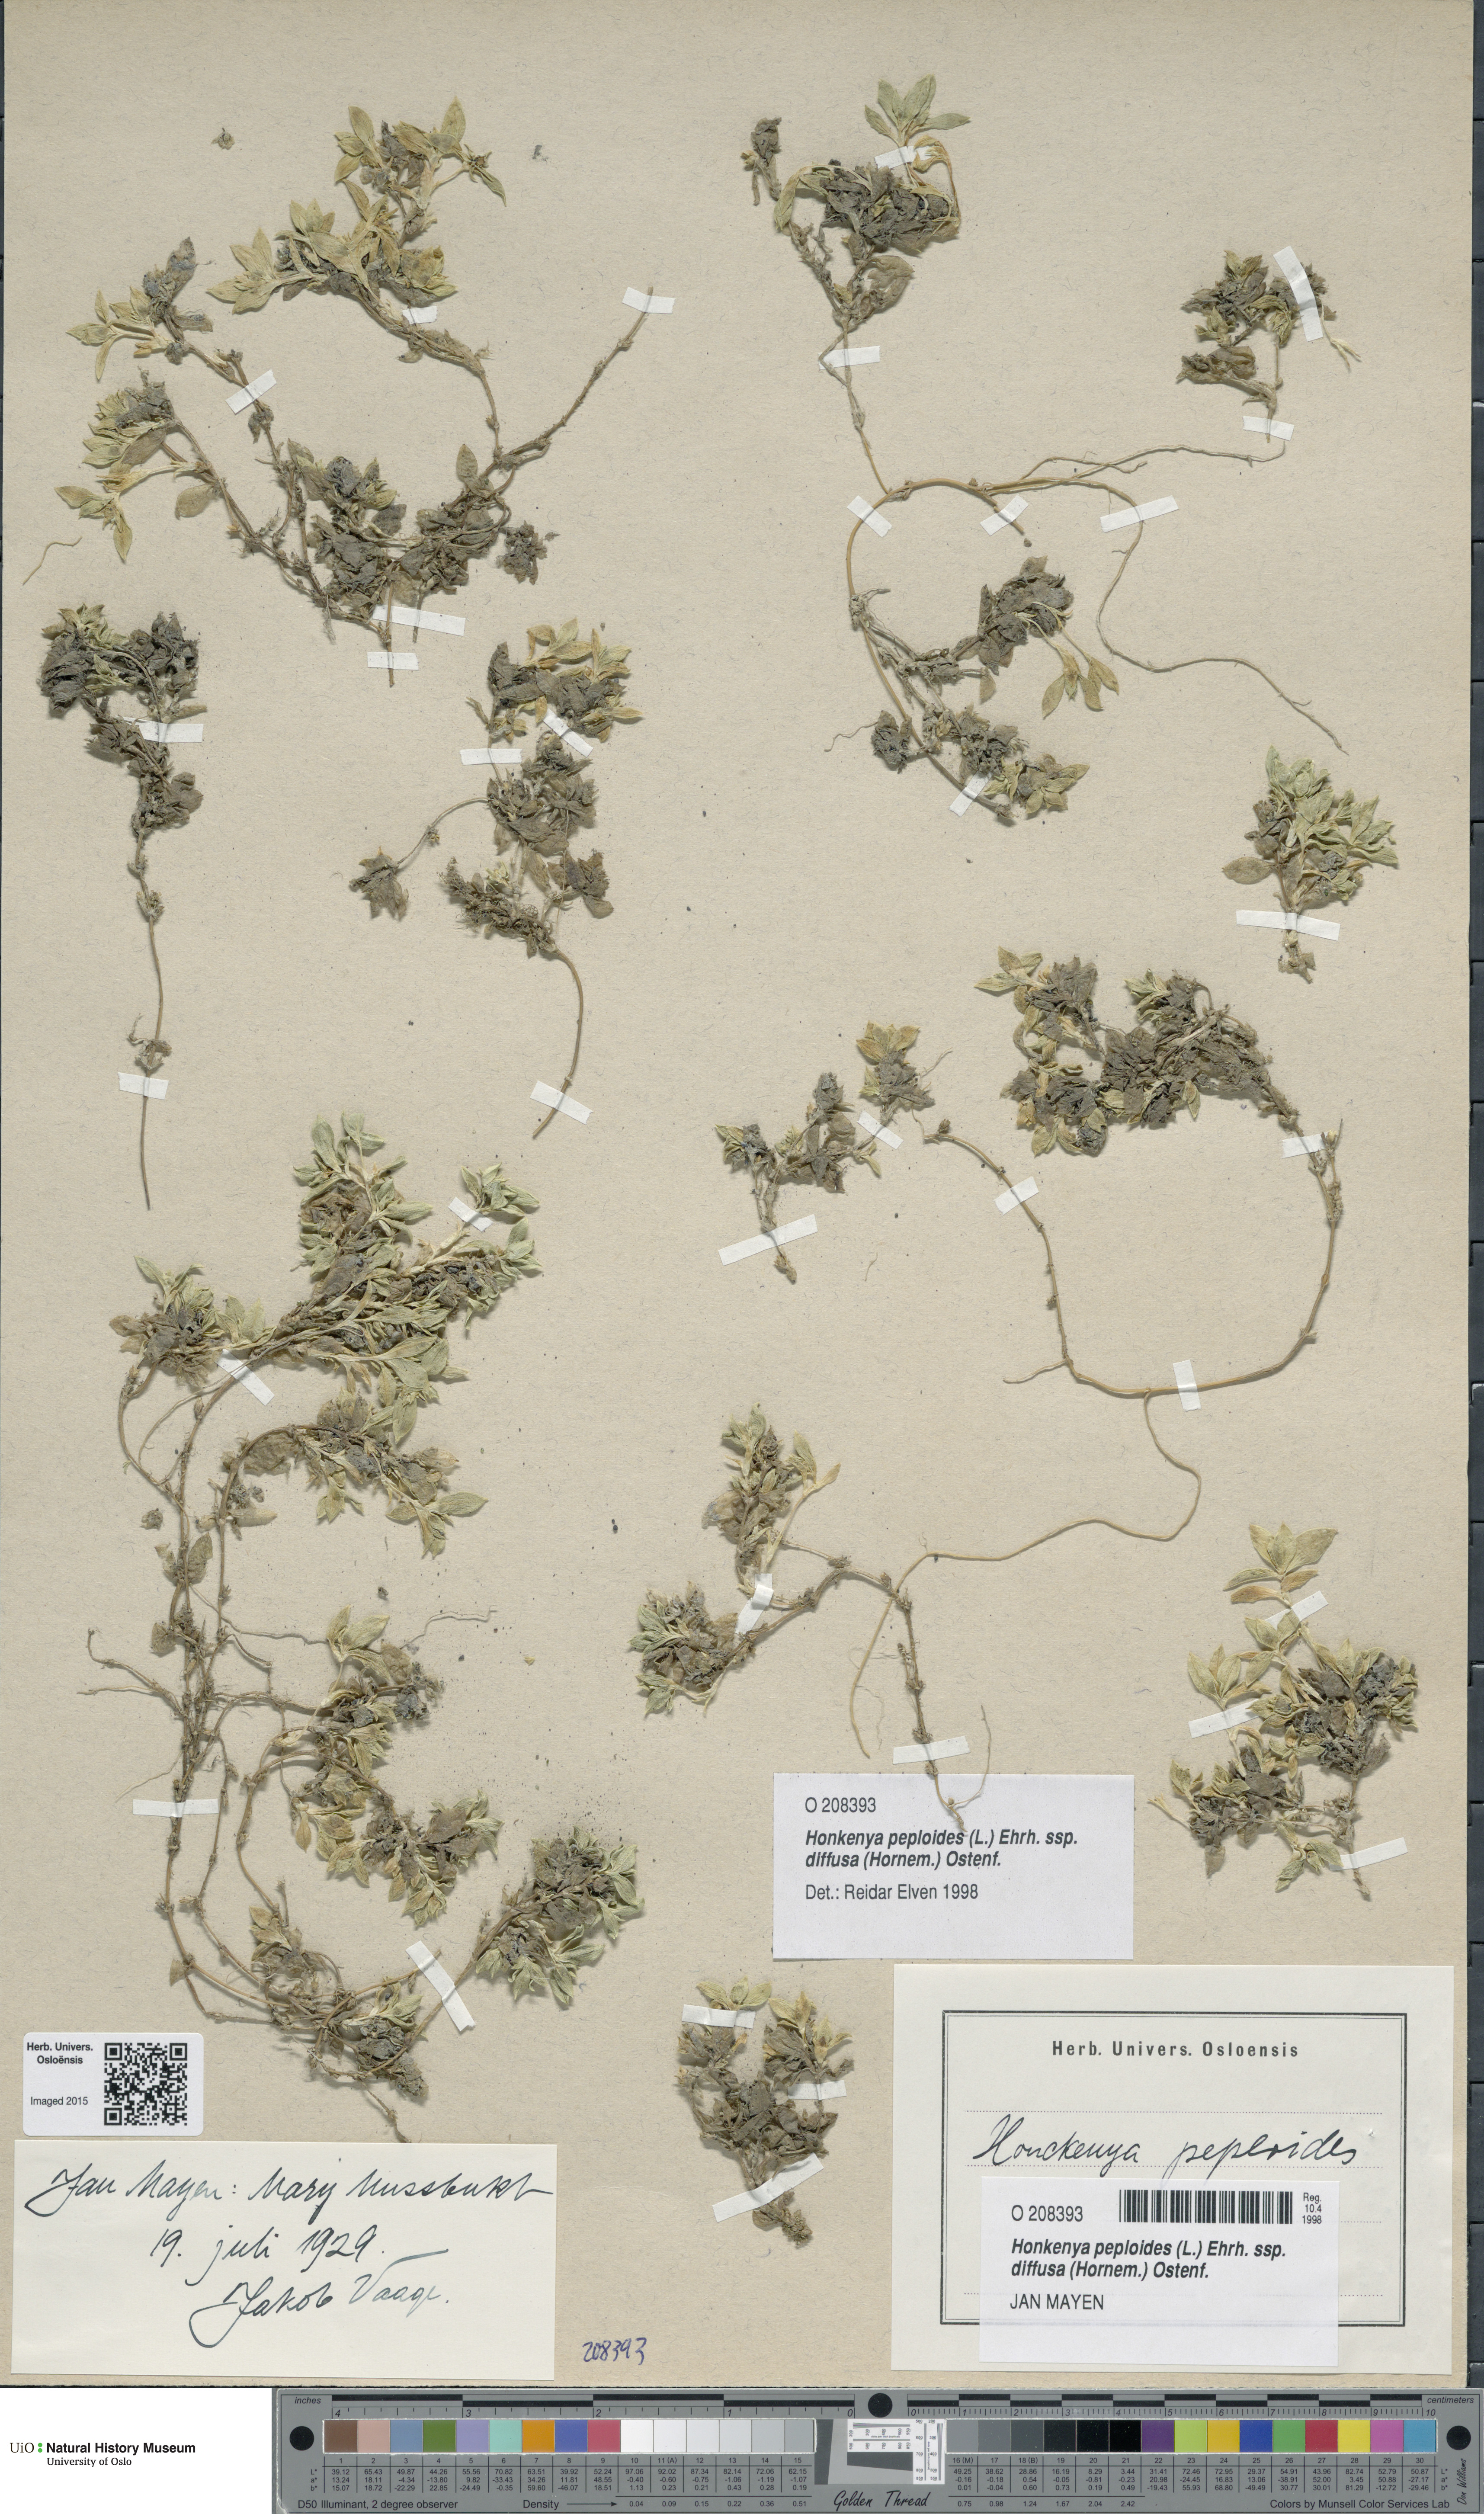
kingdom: Plantae
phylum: Tracheophyta
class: Magnoliopsida
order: Caryophyllales
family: Caryophyllaceae
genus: Honckenya
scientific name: Honckenya peploides
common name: Sea sandwort
